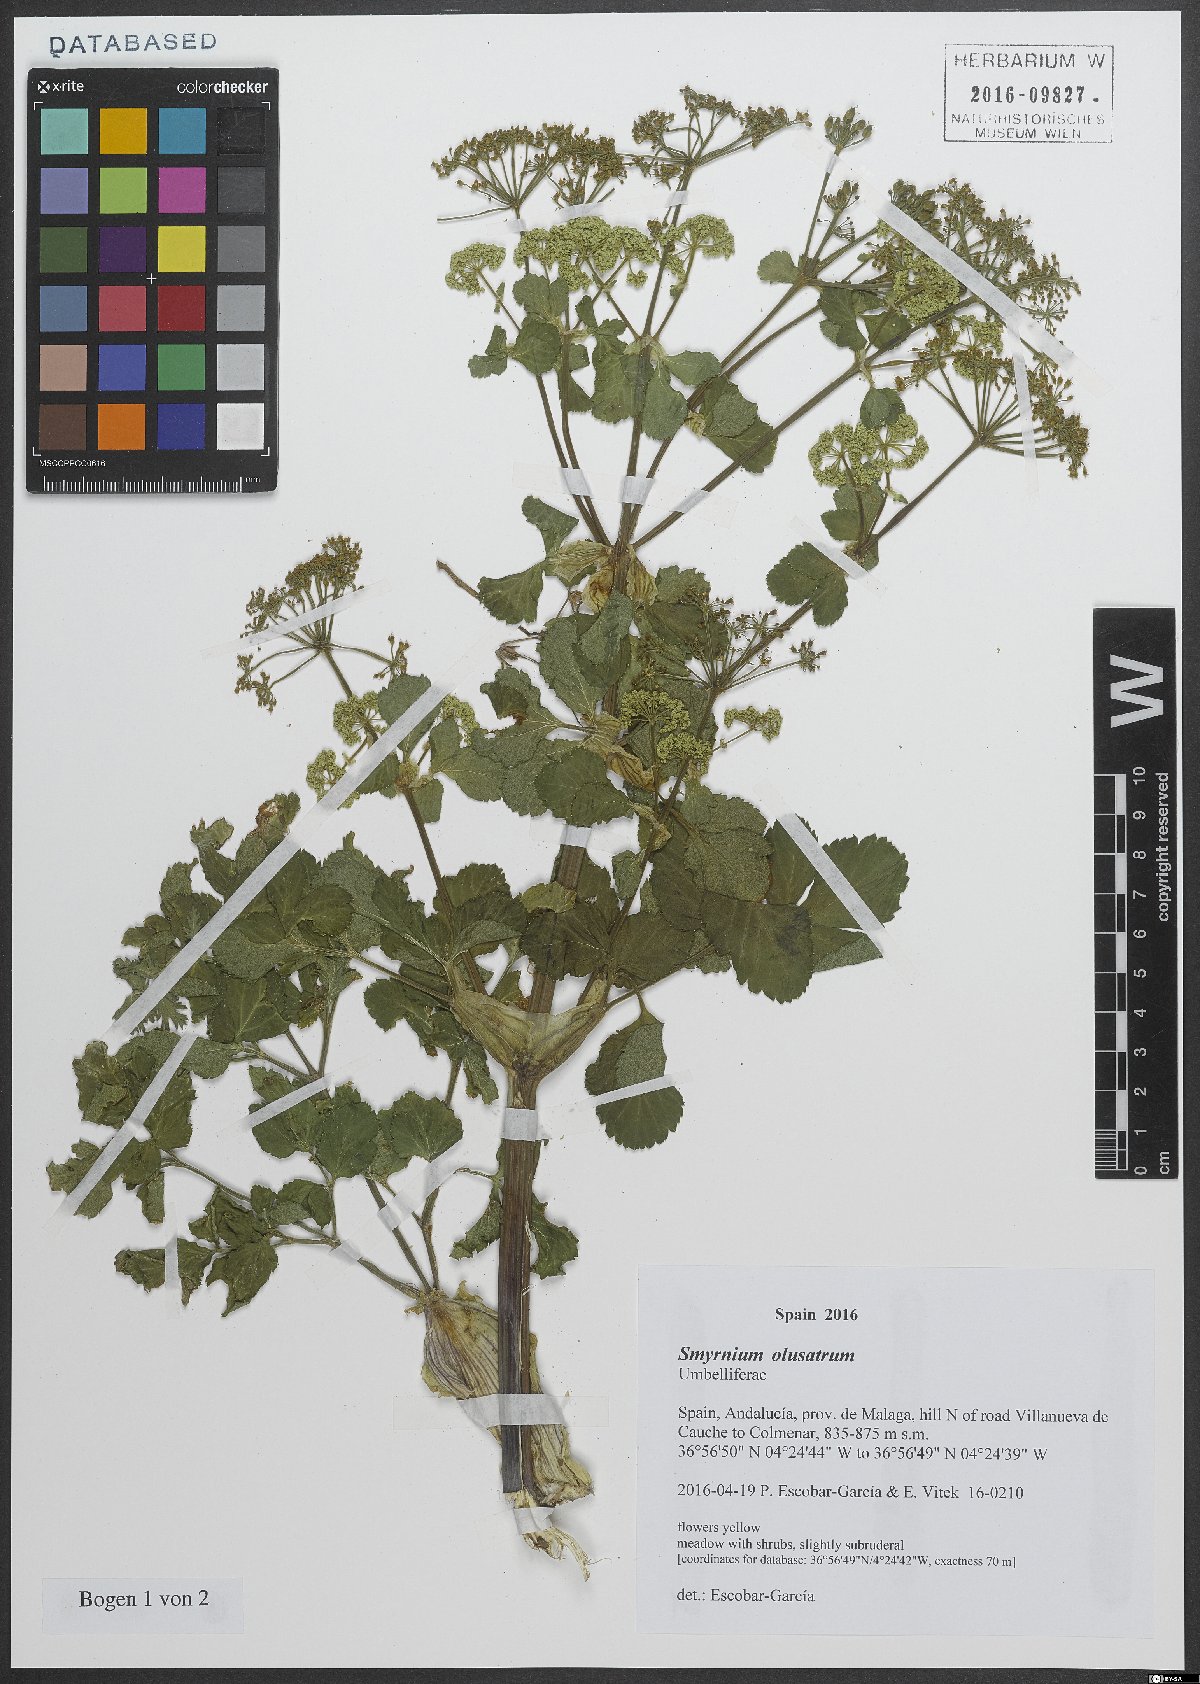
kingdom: Plantae
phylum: Tracheophyta
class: Magnoliopsida
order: Apiales
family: Apiaceae
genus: Smyrnium
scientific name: Smyrnium olusatrum
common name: Alexanders
